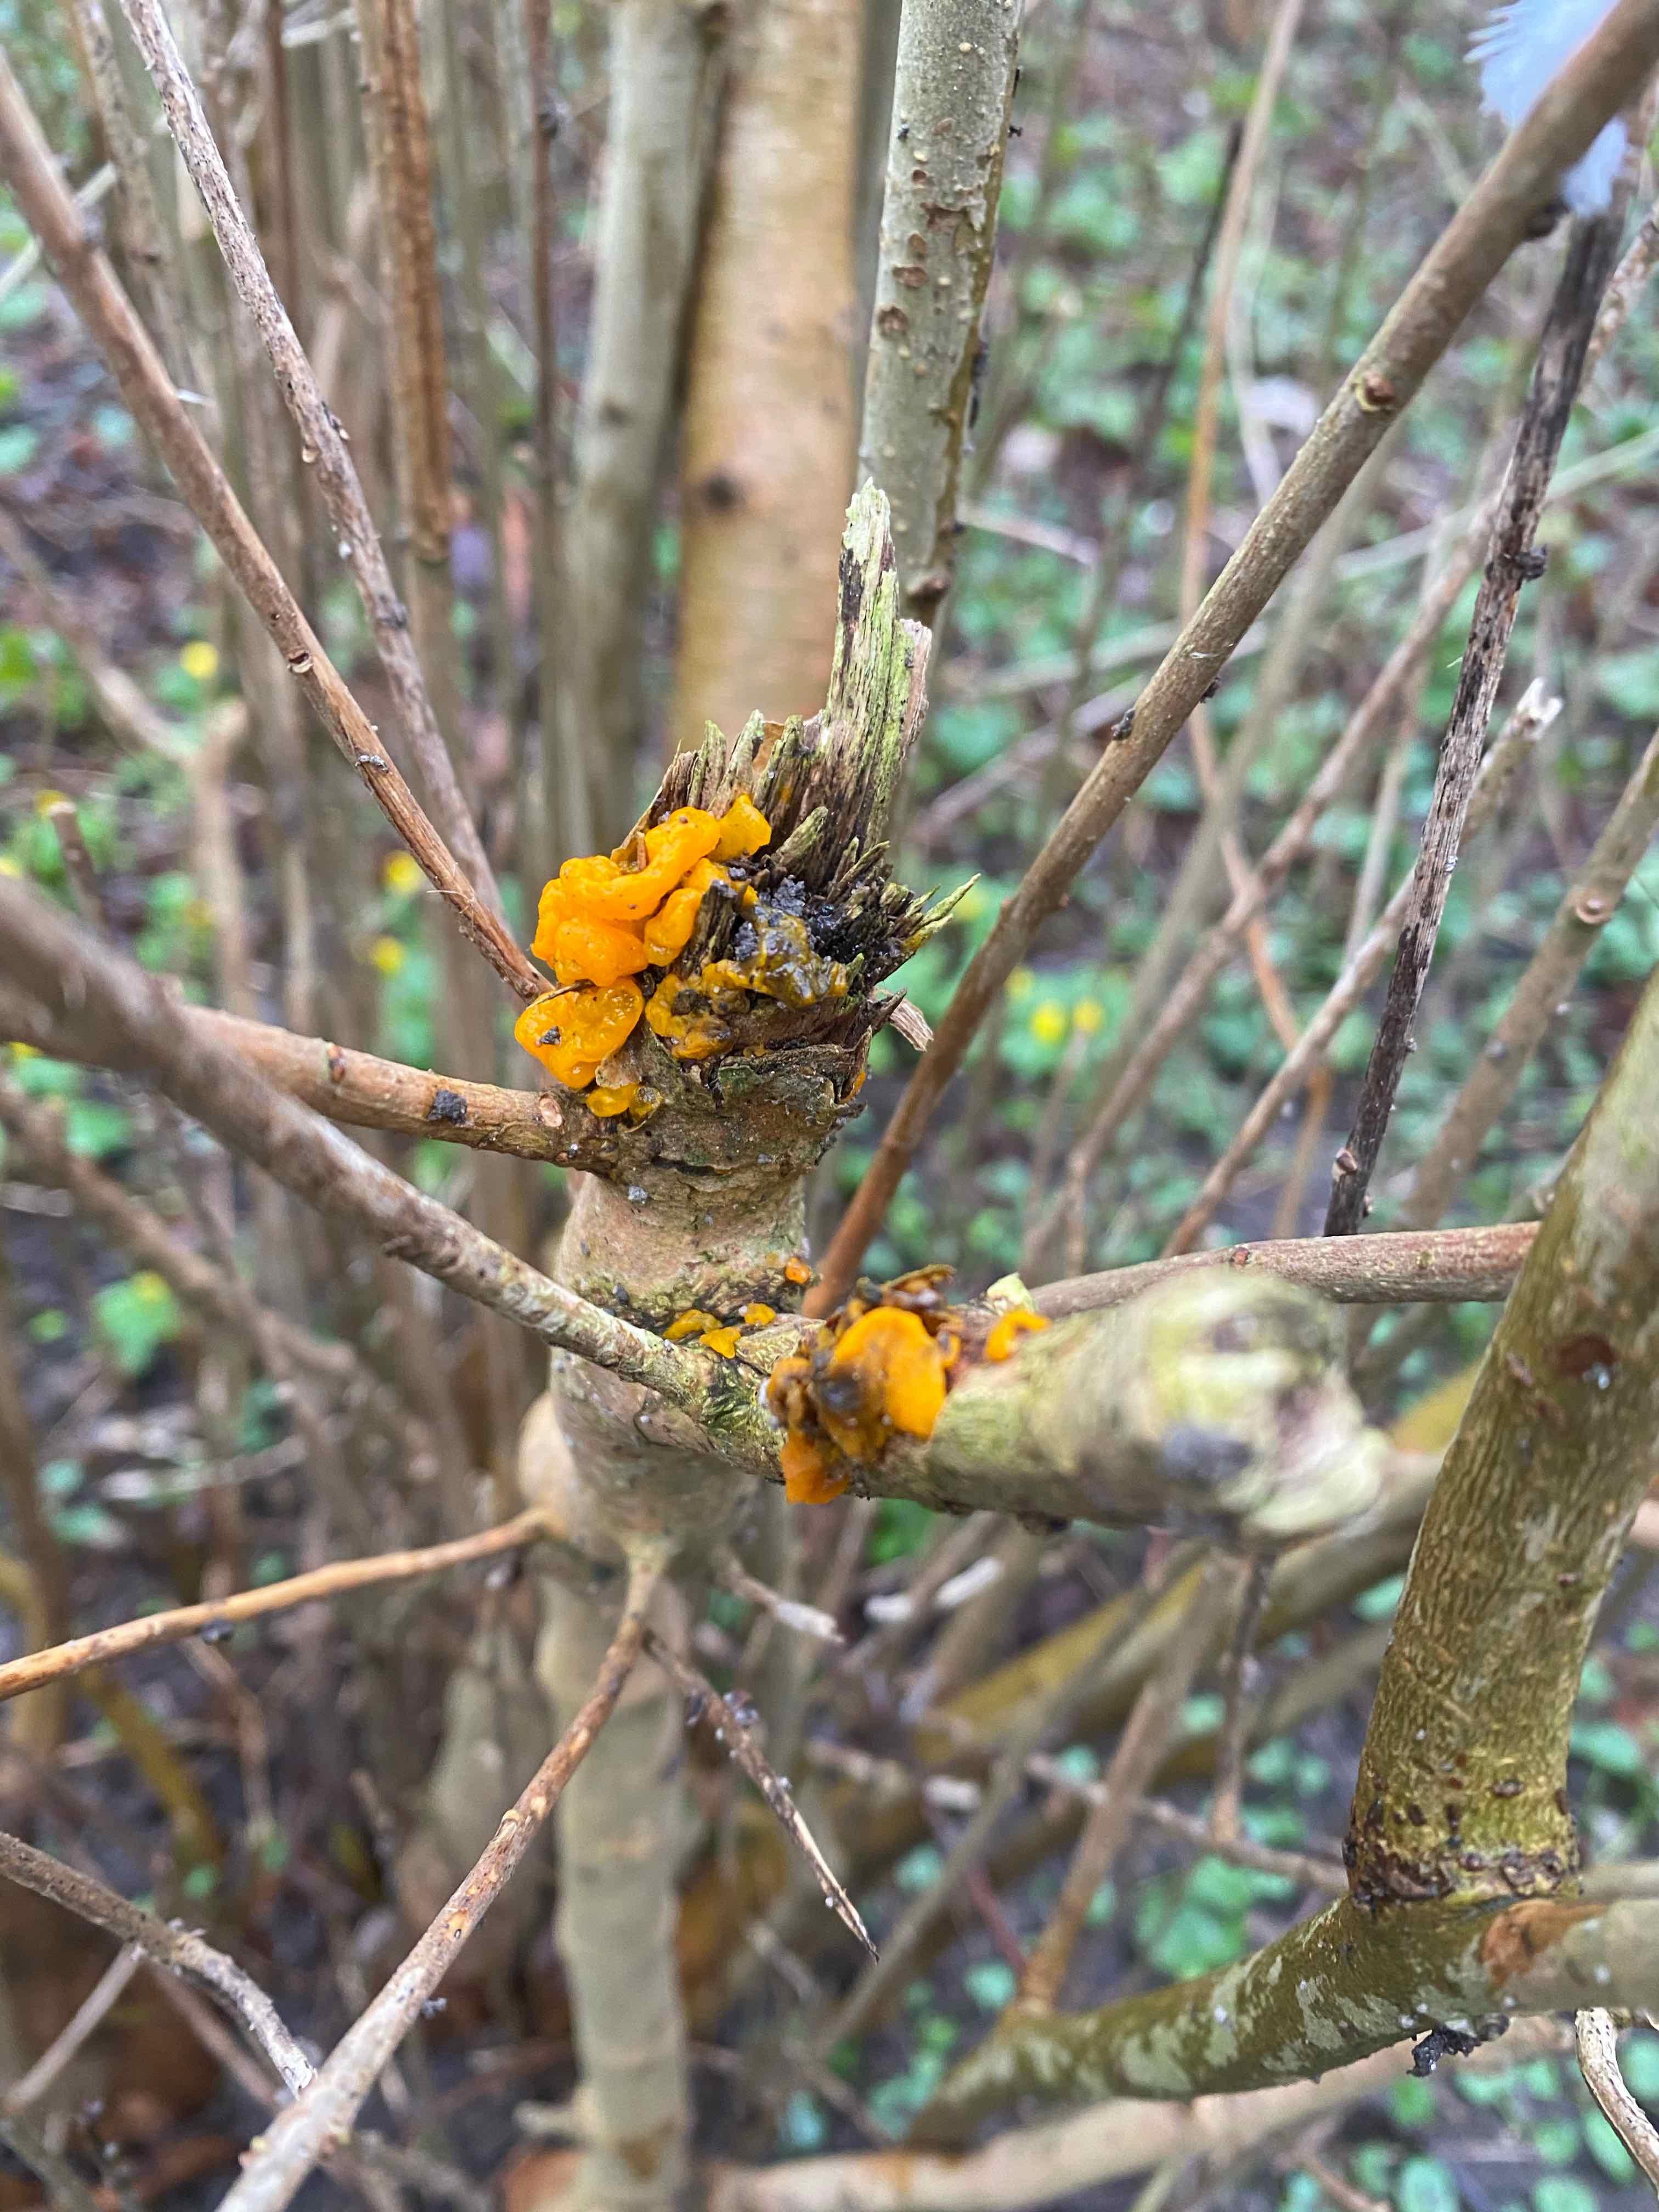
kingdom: Fungi
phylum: Basidiomycota
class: Tremellomycetes
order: Tremellales
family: Tremellaceae
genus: Tremella
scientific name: Tremella mesenterica
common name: gul bævresvamp
